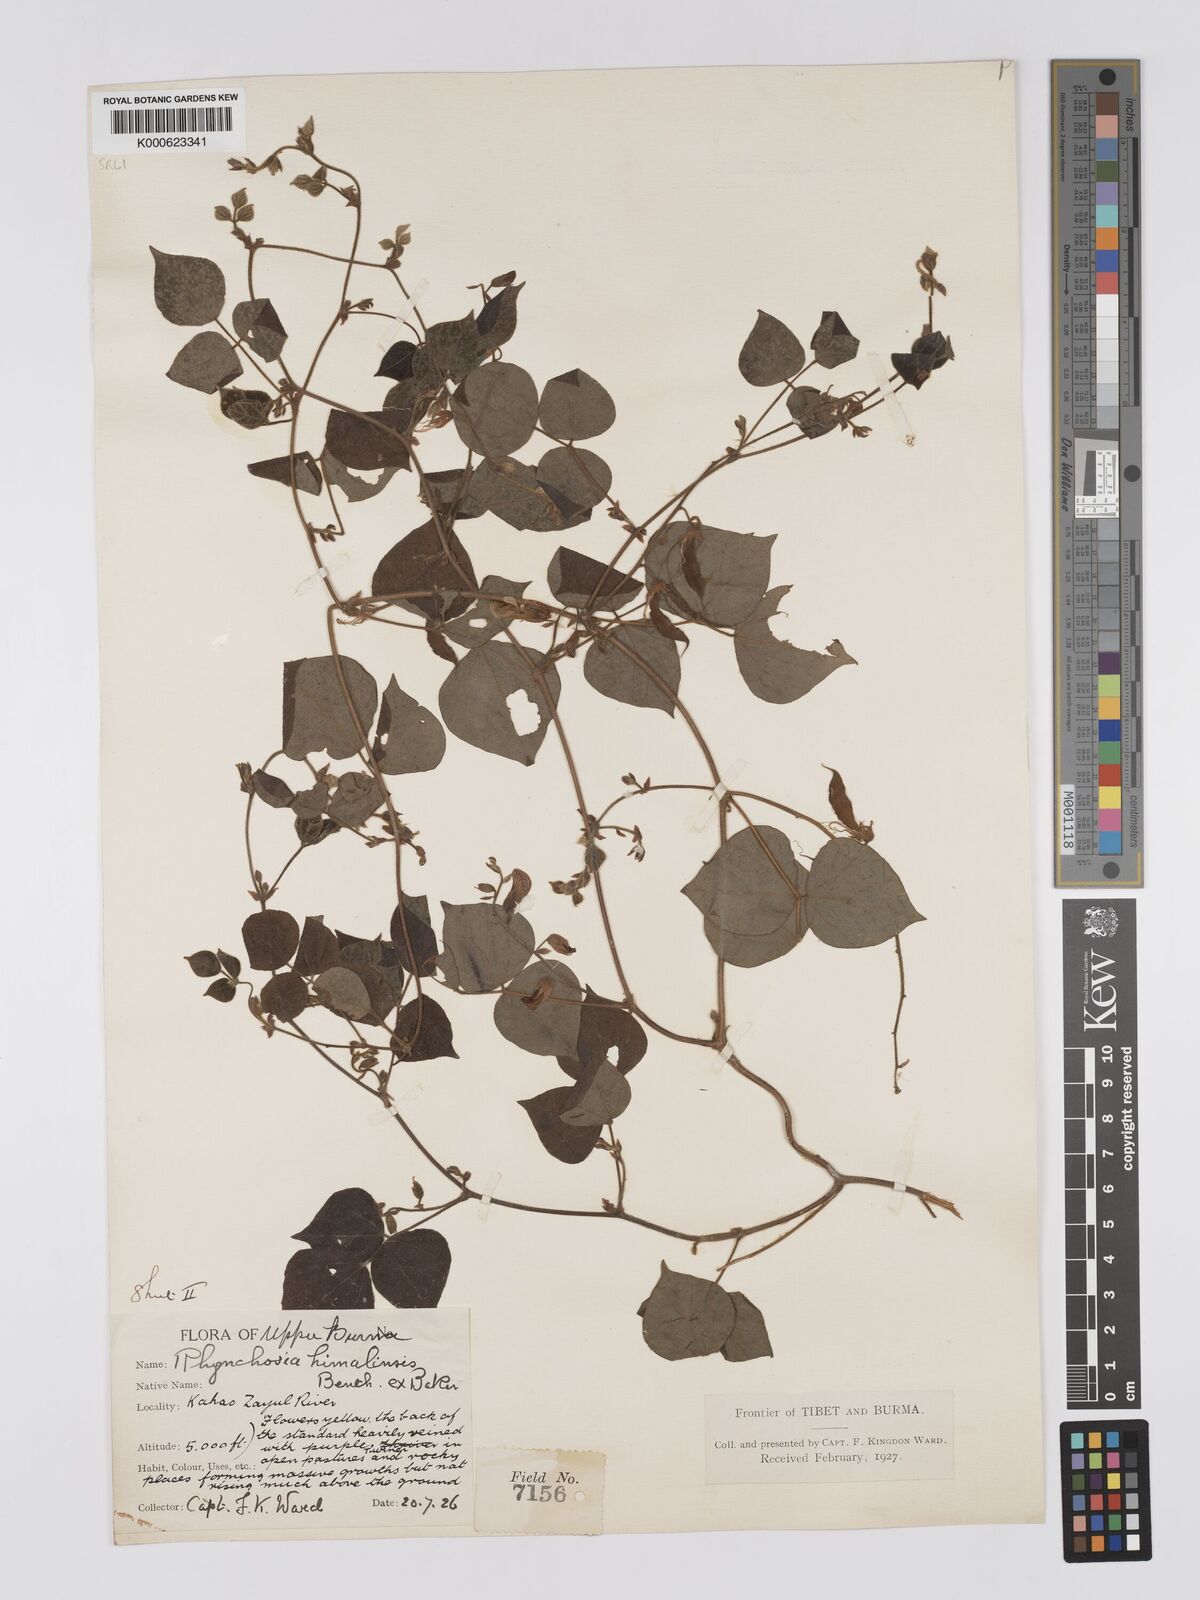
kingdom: Plantae
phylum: Tracheophyta
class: Magnoliopsida
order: Fabales
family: Fabaceae
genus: Rhynchosia
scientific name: Rhynchosia himalensis
